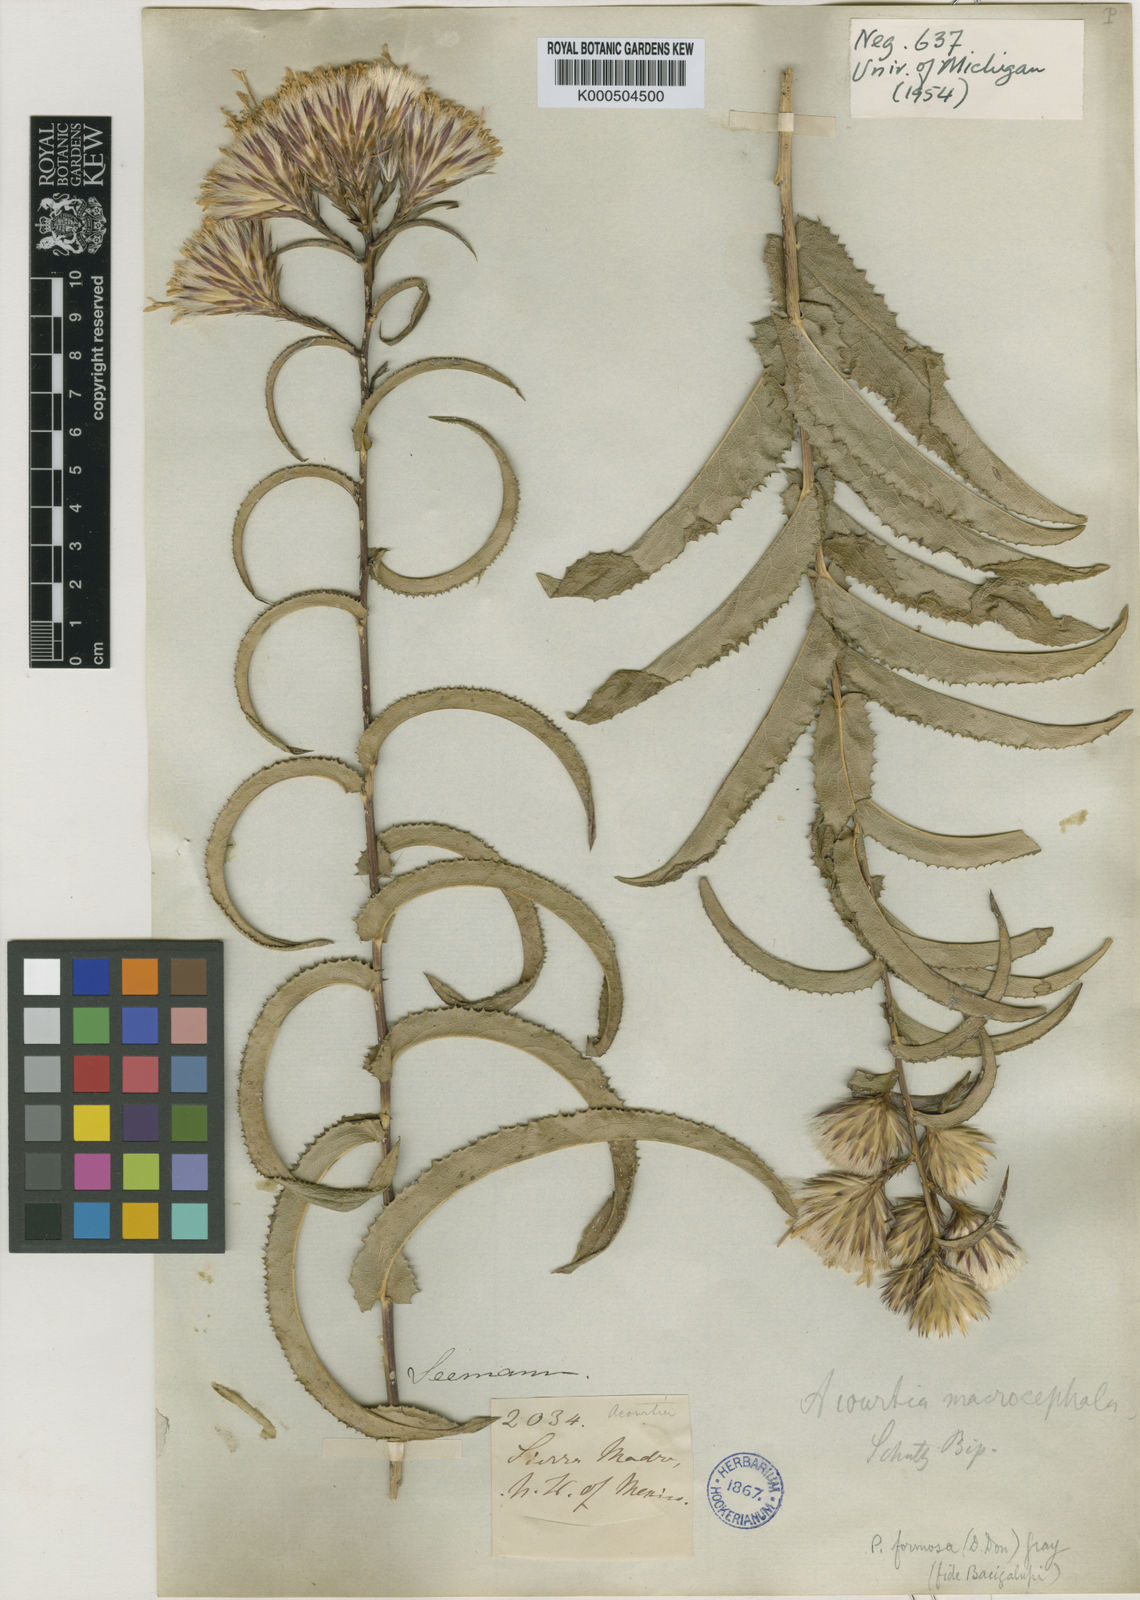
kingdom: Plantae
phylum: Tracheophyta
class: Magnoliopsida
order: Asterales
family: Asteraceae
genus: Acourtia
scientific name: Acourtia fruticosa
